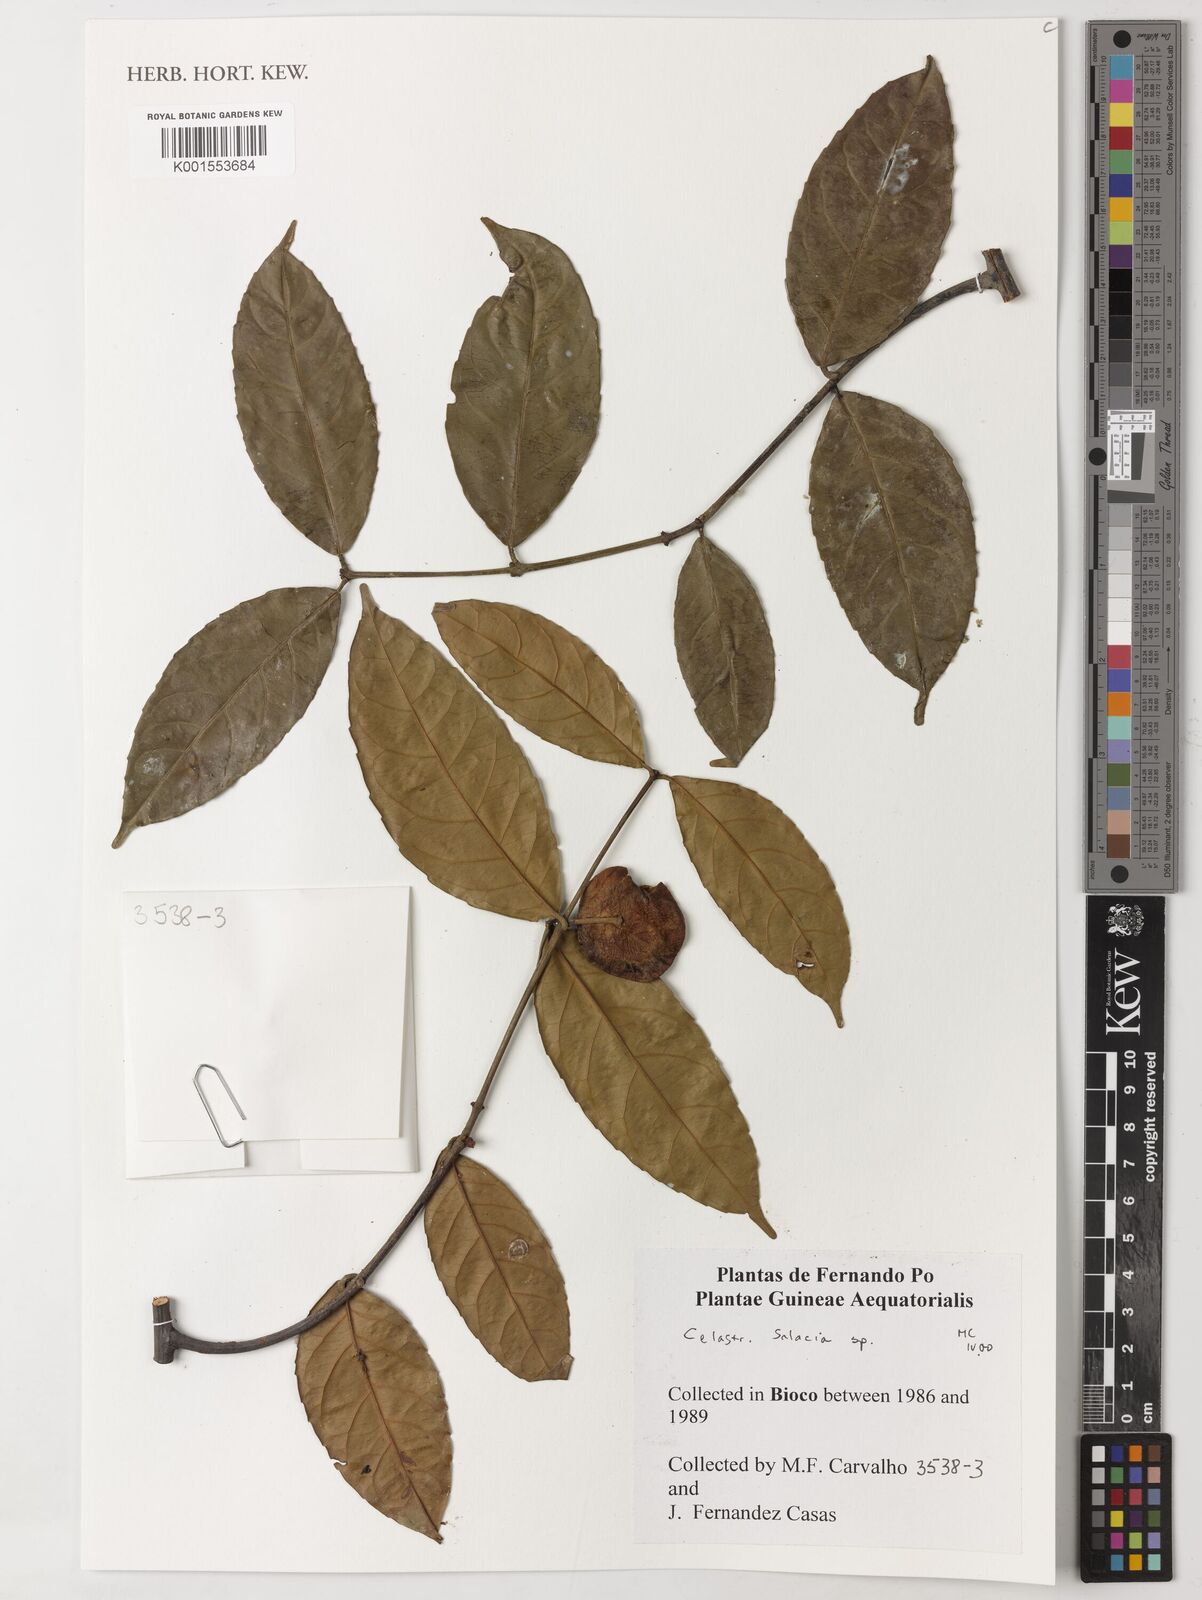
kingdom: Plantae
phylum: Tracheophyta
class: Magnoliopsida
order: Celastrales
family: Celastraceae
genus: Salacia
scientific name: Salacia
